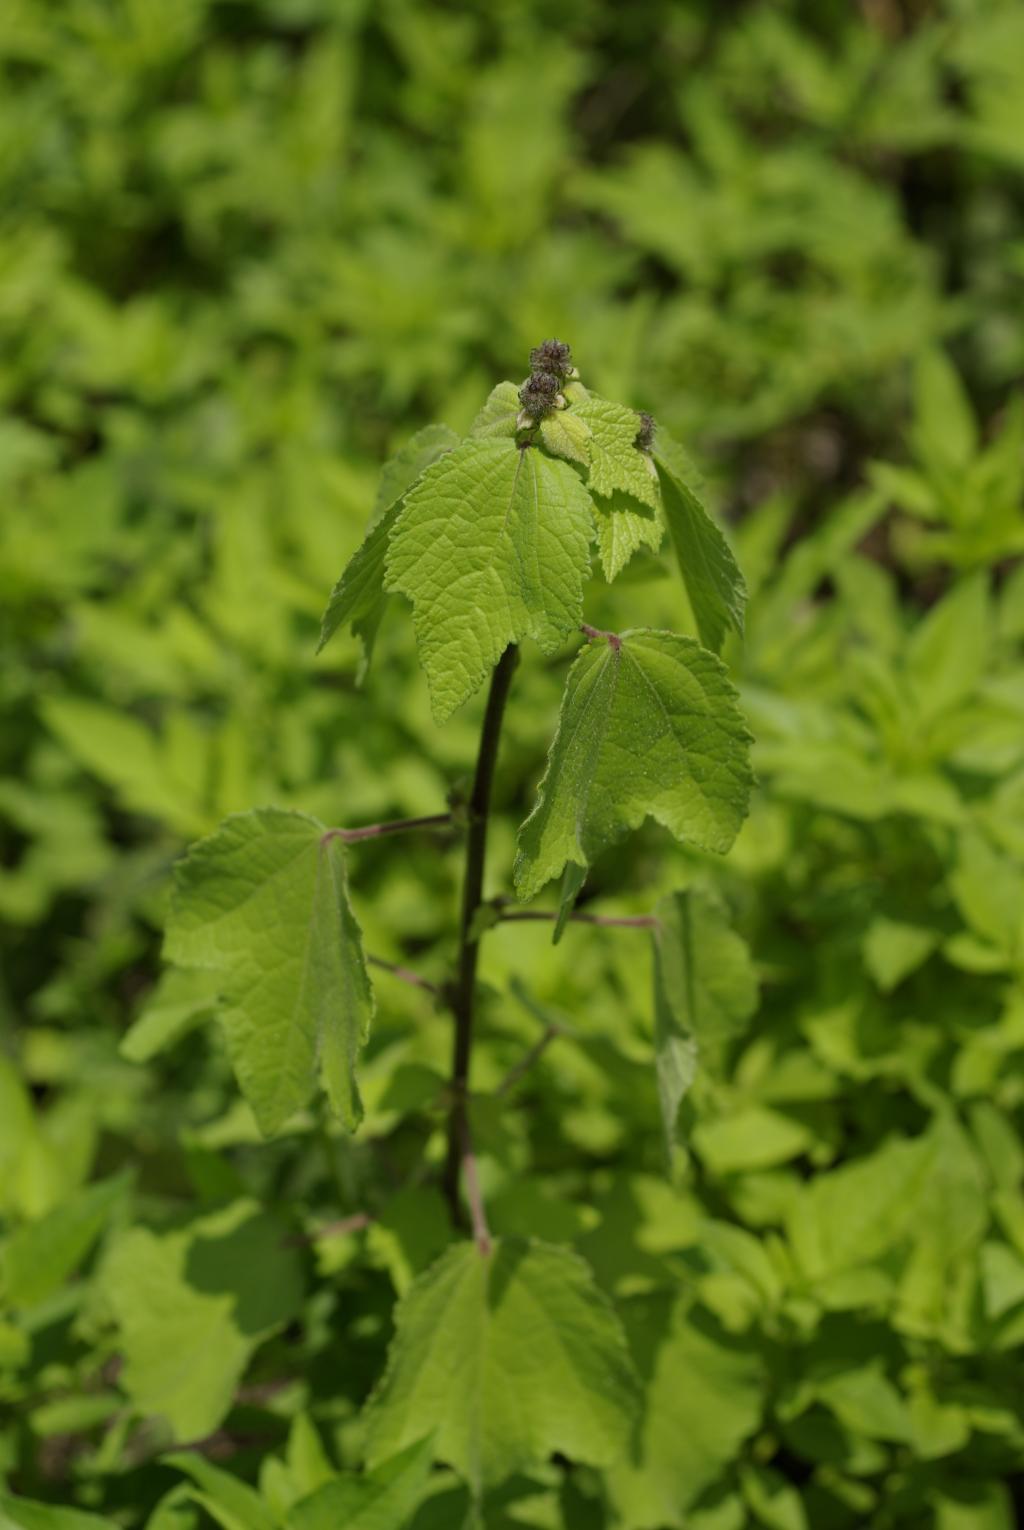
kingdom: Plantae
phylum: Tracheophyta
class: Magnoliopsida
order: Malvales
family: Malvaceae
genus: Triumfetta
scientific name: Triumfetta rhomboidea
